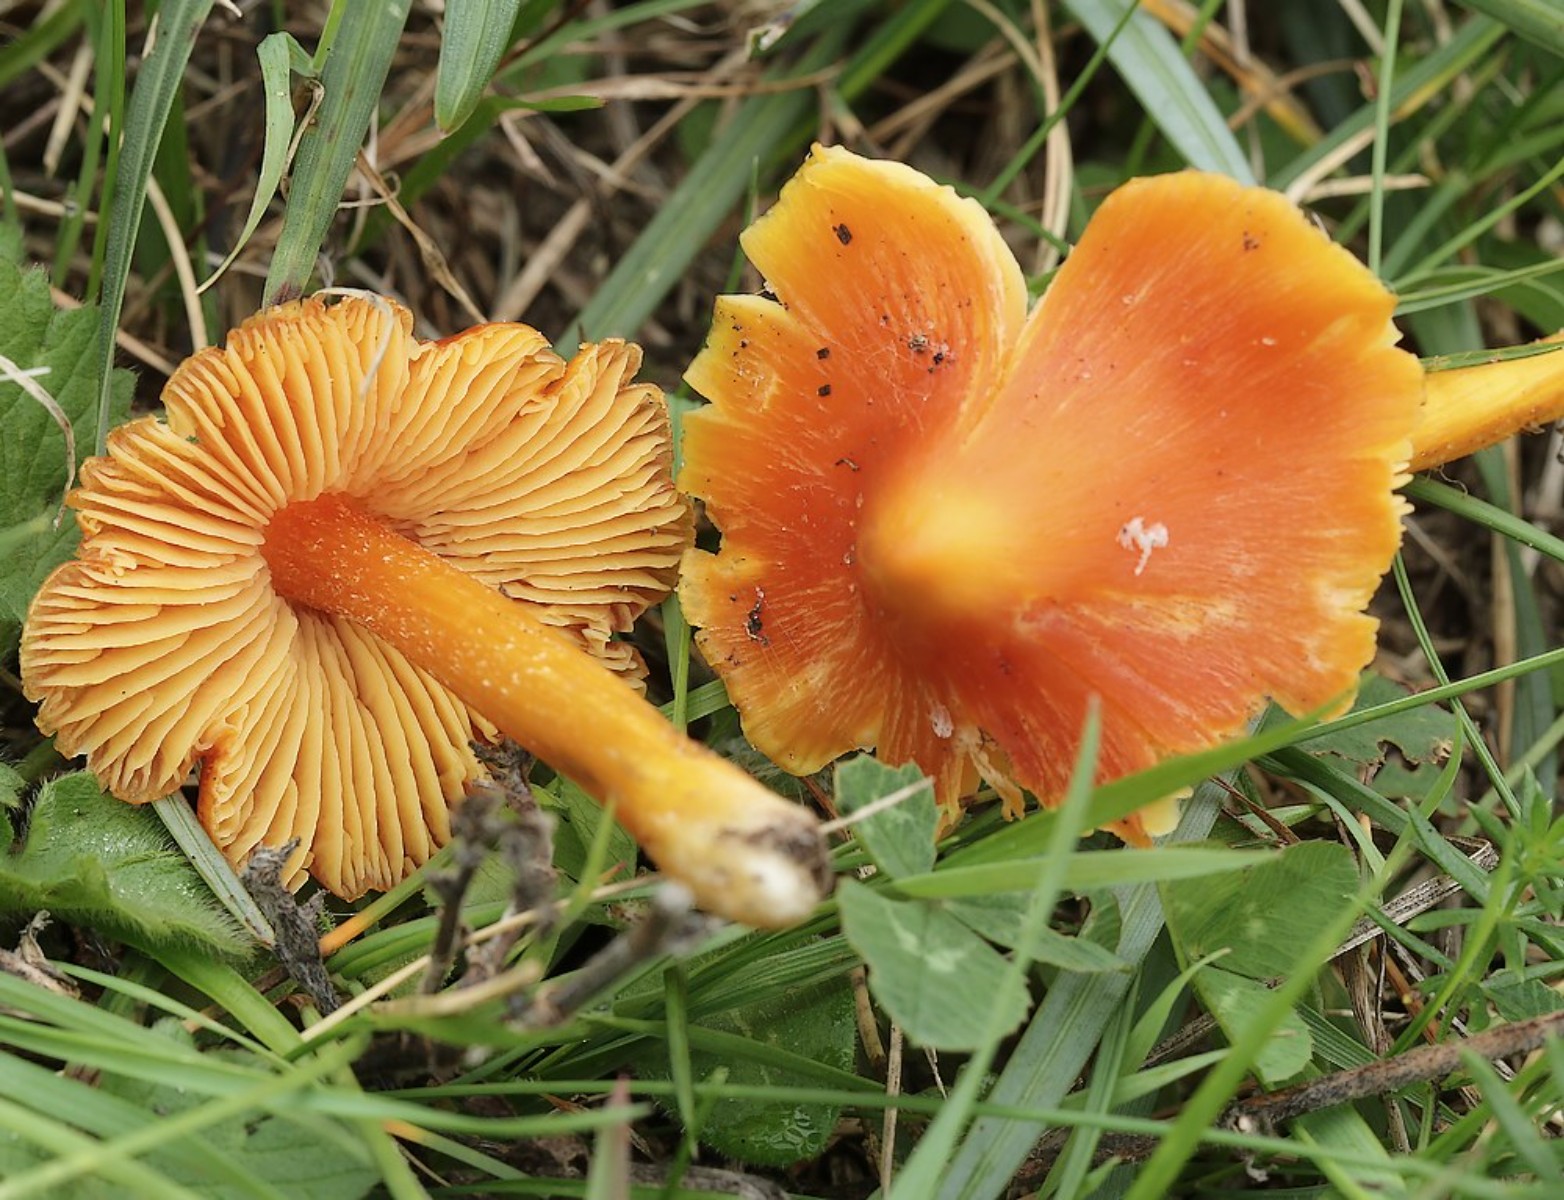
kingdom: Fungi
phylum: Basidiomycota
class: Agaricomycetes
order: Agaricales
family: Hygrophoraceae
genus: Hygrocybe
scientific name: Hygrocybe acutoconica
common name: spidspuklet vokshat
